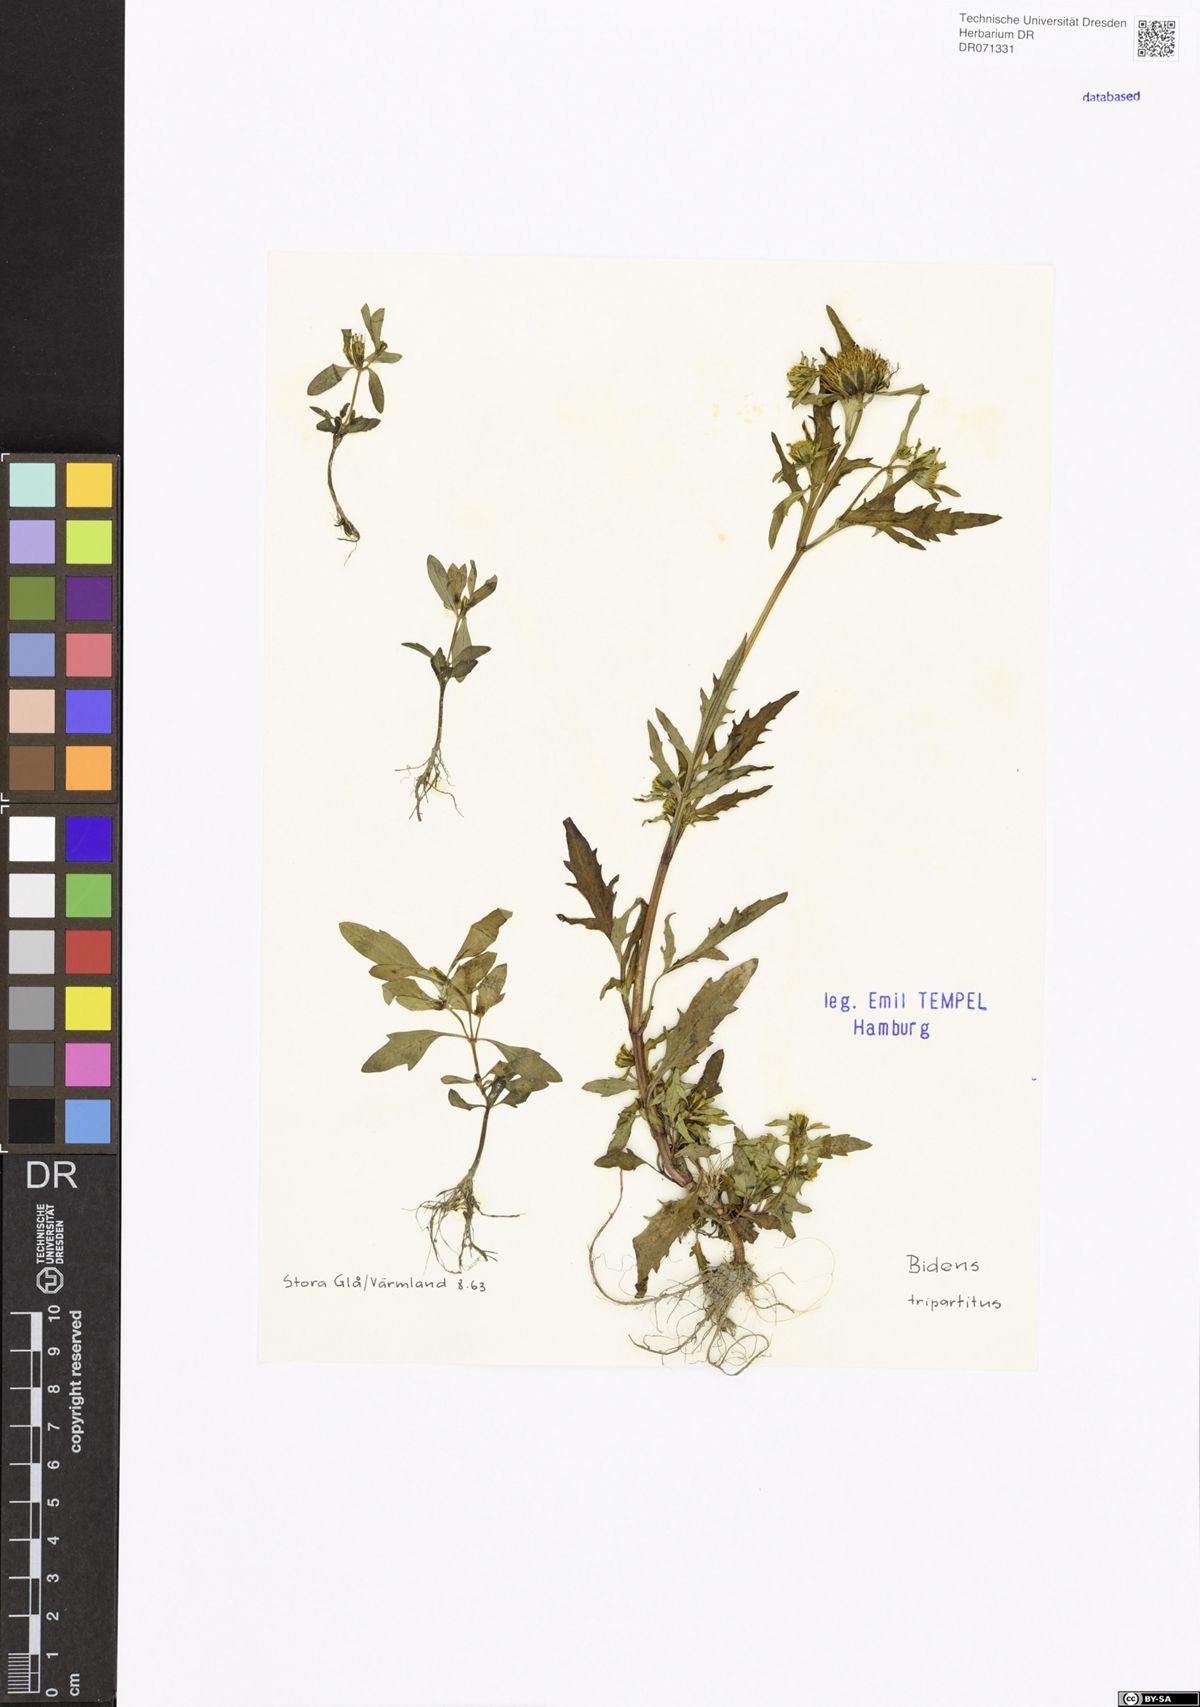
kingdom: Plantae
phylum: Tracheophyta
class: Magnoliopsida
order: Asterales
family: Asteraceae
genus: Bidens
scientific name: Bidens tripartita
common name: Trifid bur-marigold
